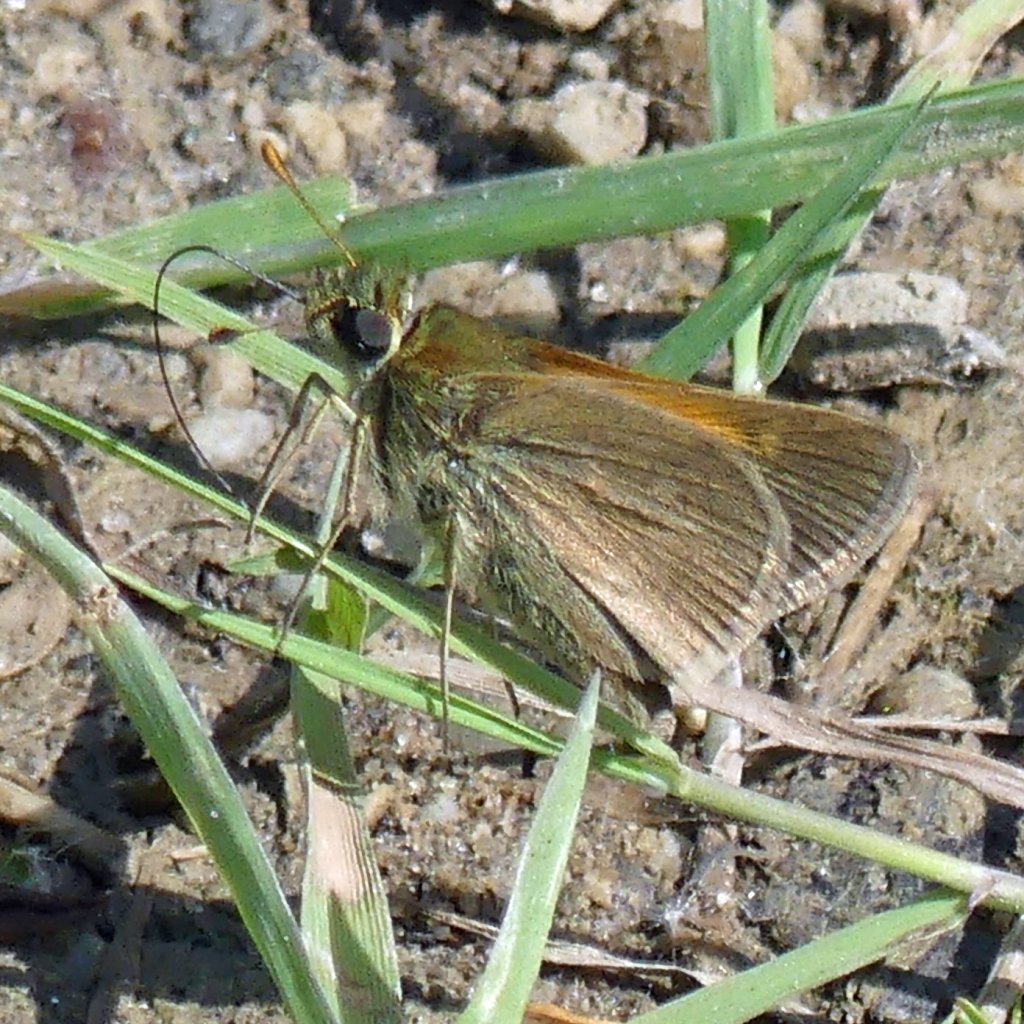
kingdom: Animalia
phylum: Arthropoda
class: Insecta
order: Lepidoptera
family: Hesperiidae
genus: Polites
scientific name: Polites themistocles
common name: Tawny-edged Skipper
